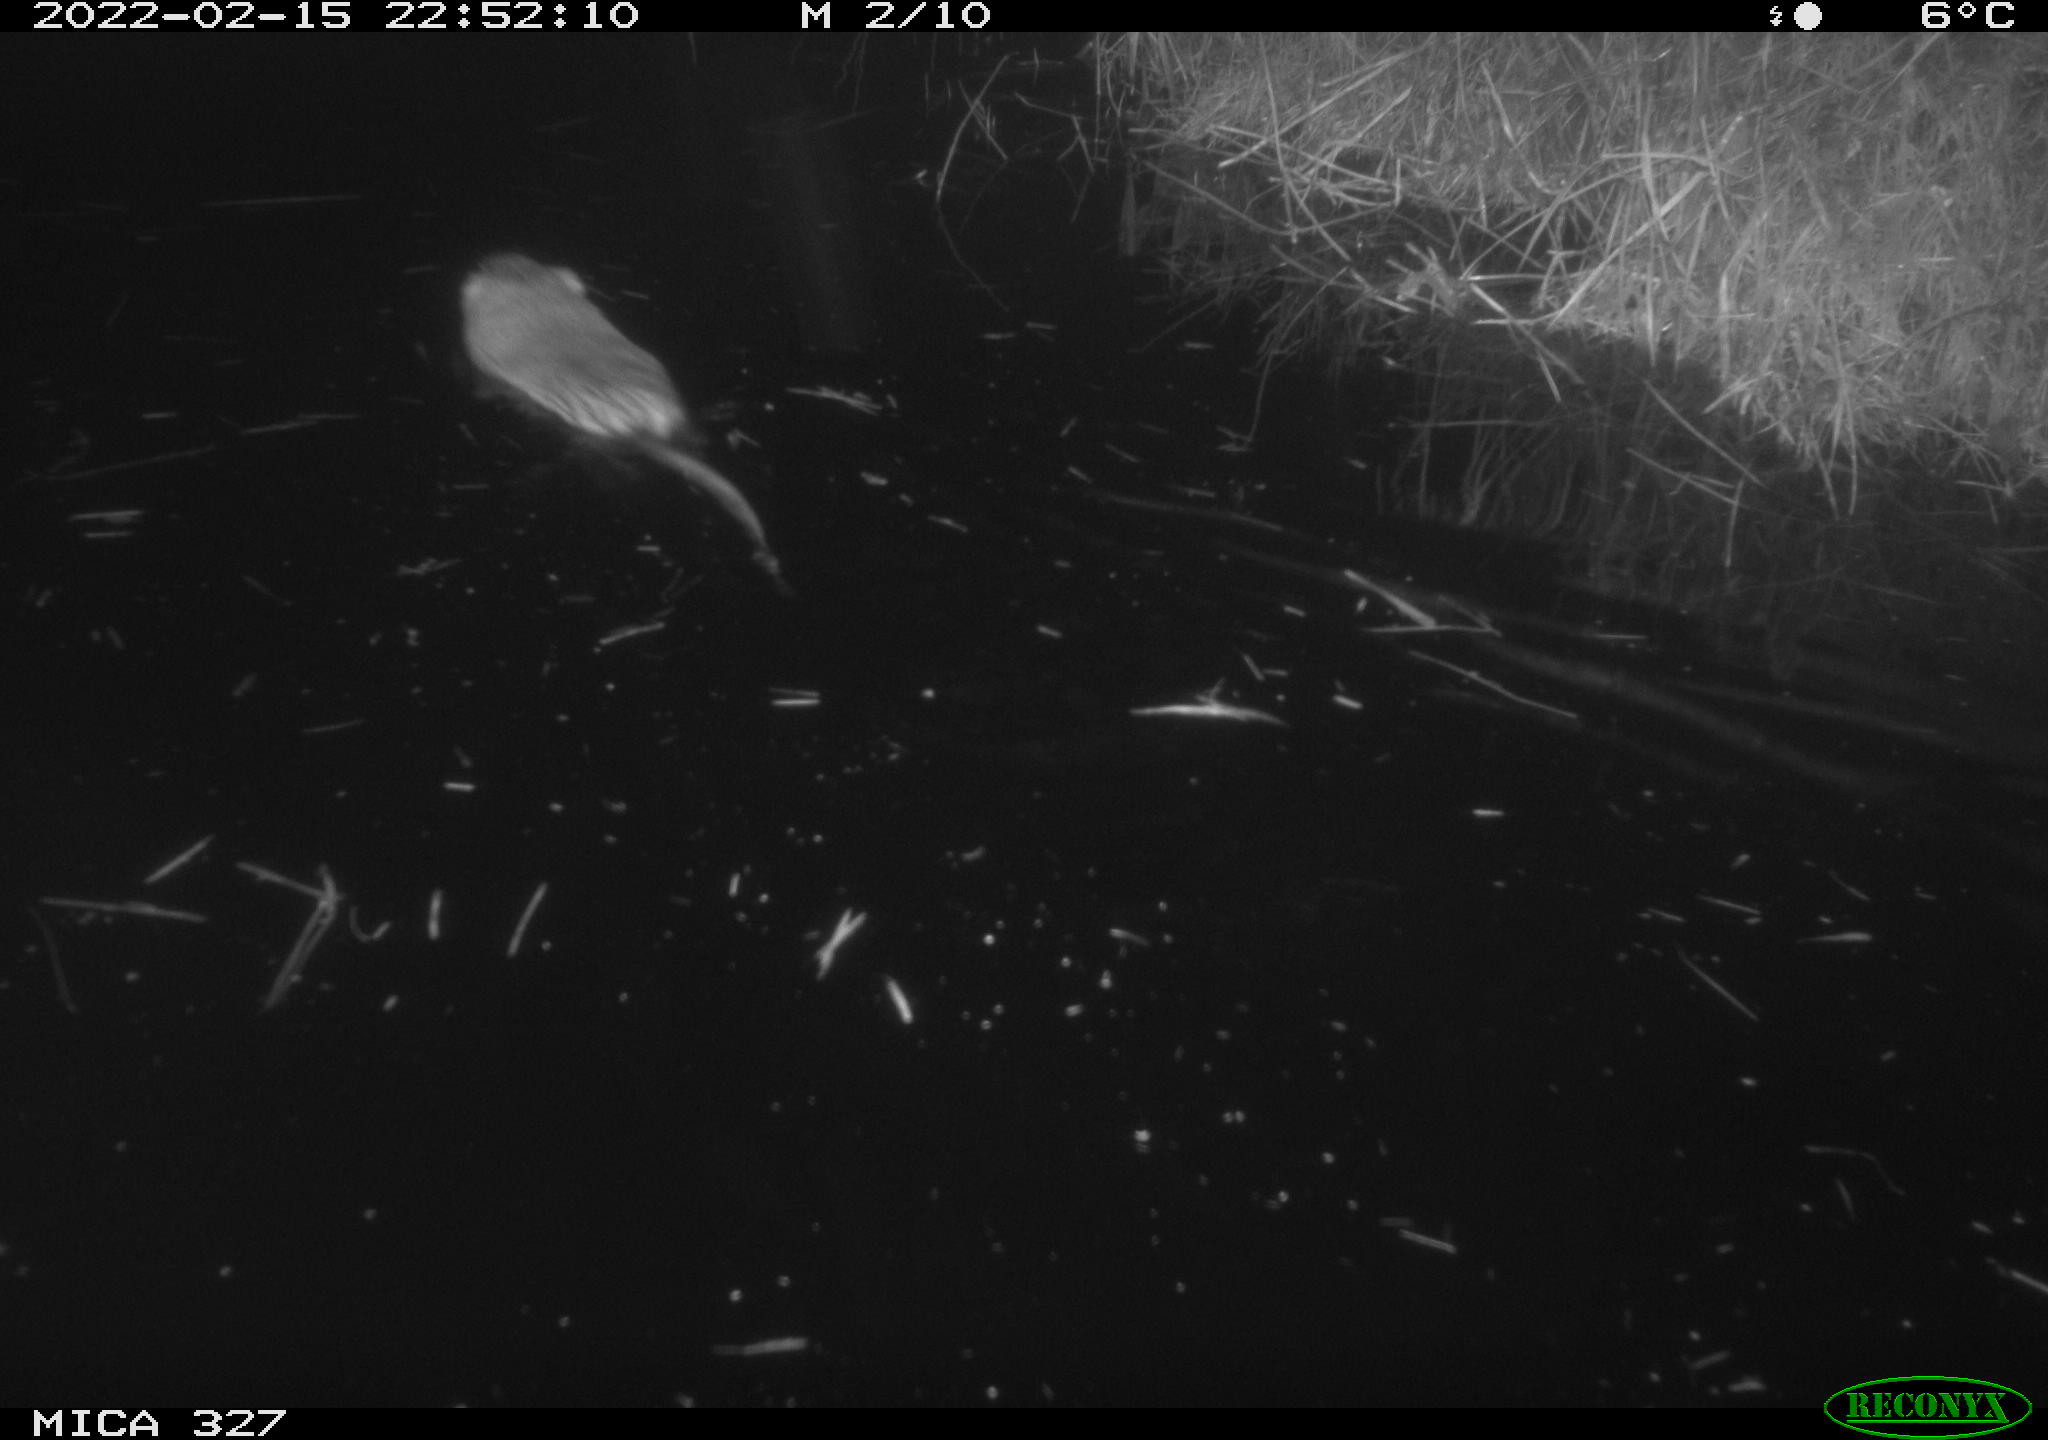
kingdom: Animalia
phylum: Chordata
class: Mammalia
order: Rodentia
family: Cricetidae
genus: Ondatra
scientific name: Ondatra zibethicus
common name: Muskrat
